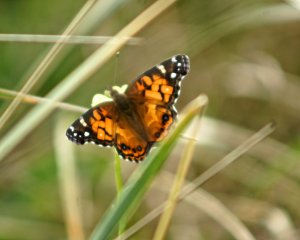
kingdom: Animalia
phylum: Arthropoda
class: Insecta
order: Lepidoptera
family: Nymphalidae
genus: Vanessa
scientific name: Vanessa virginiensis
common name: American Lady
